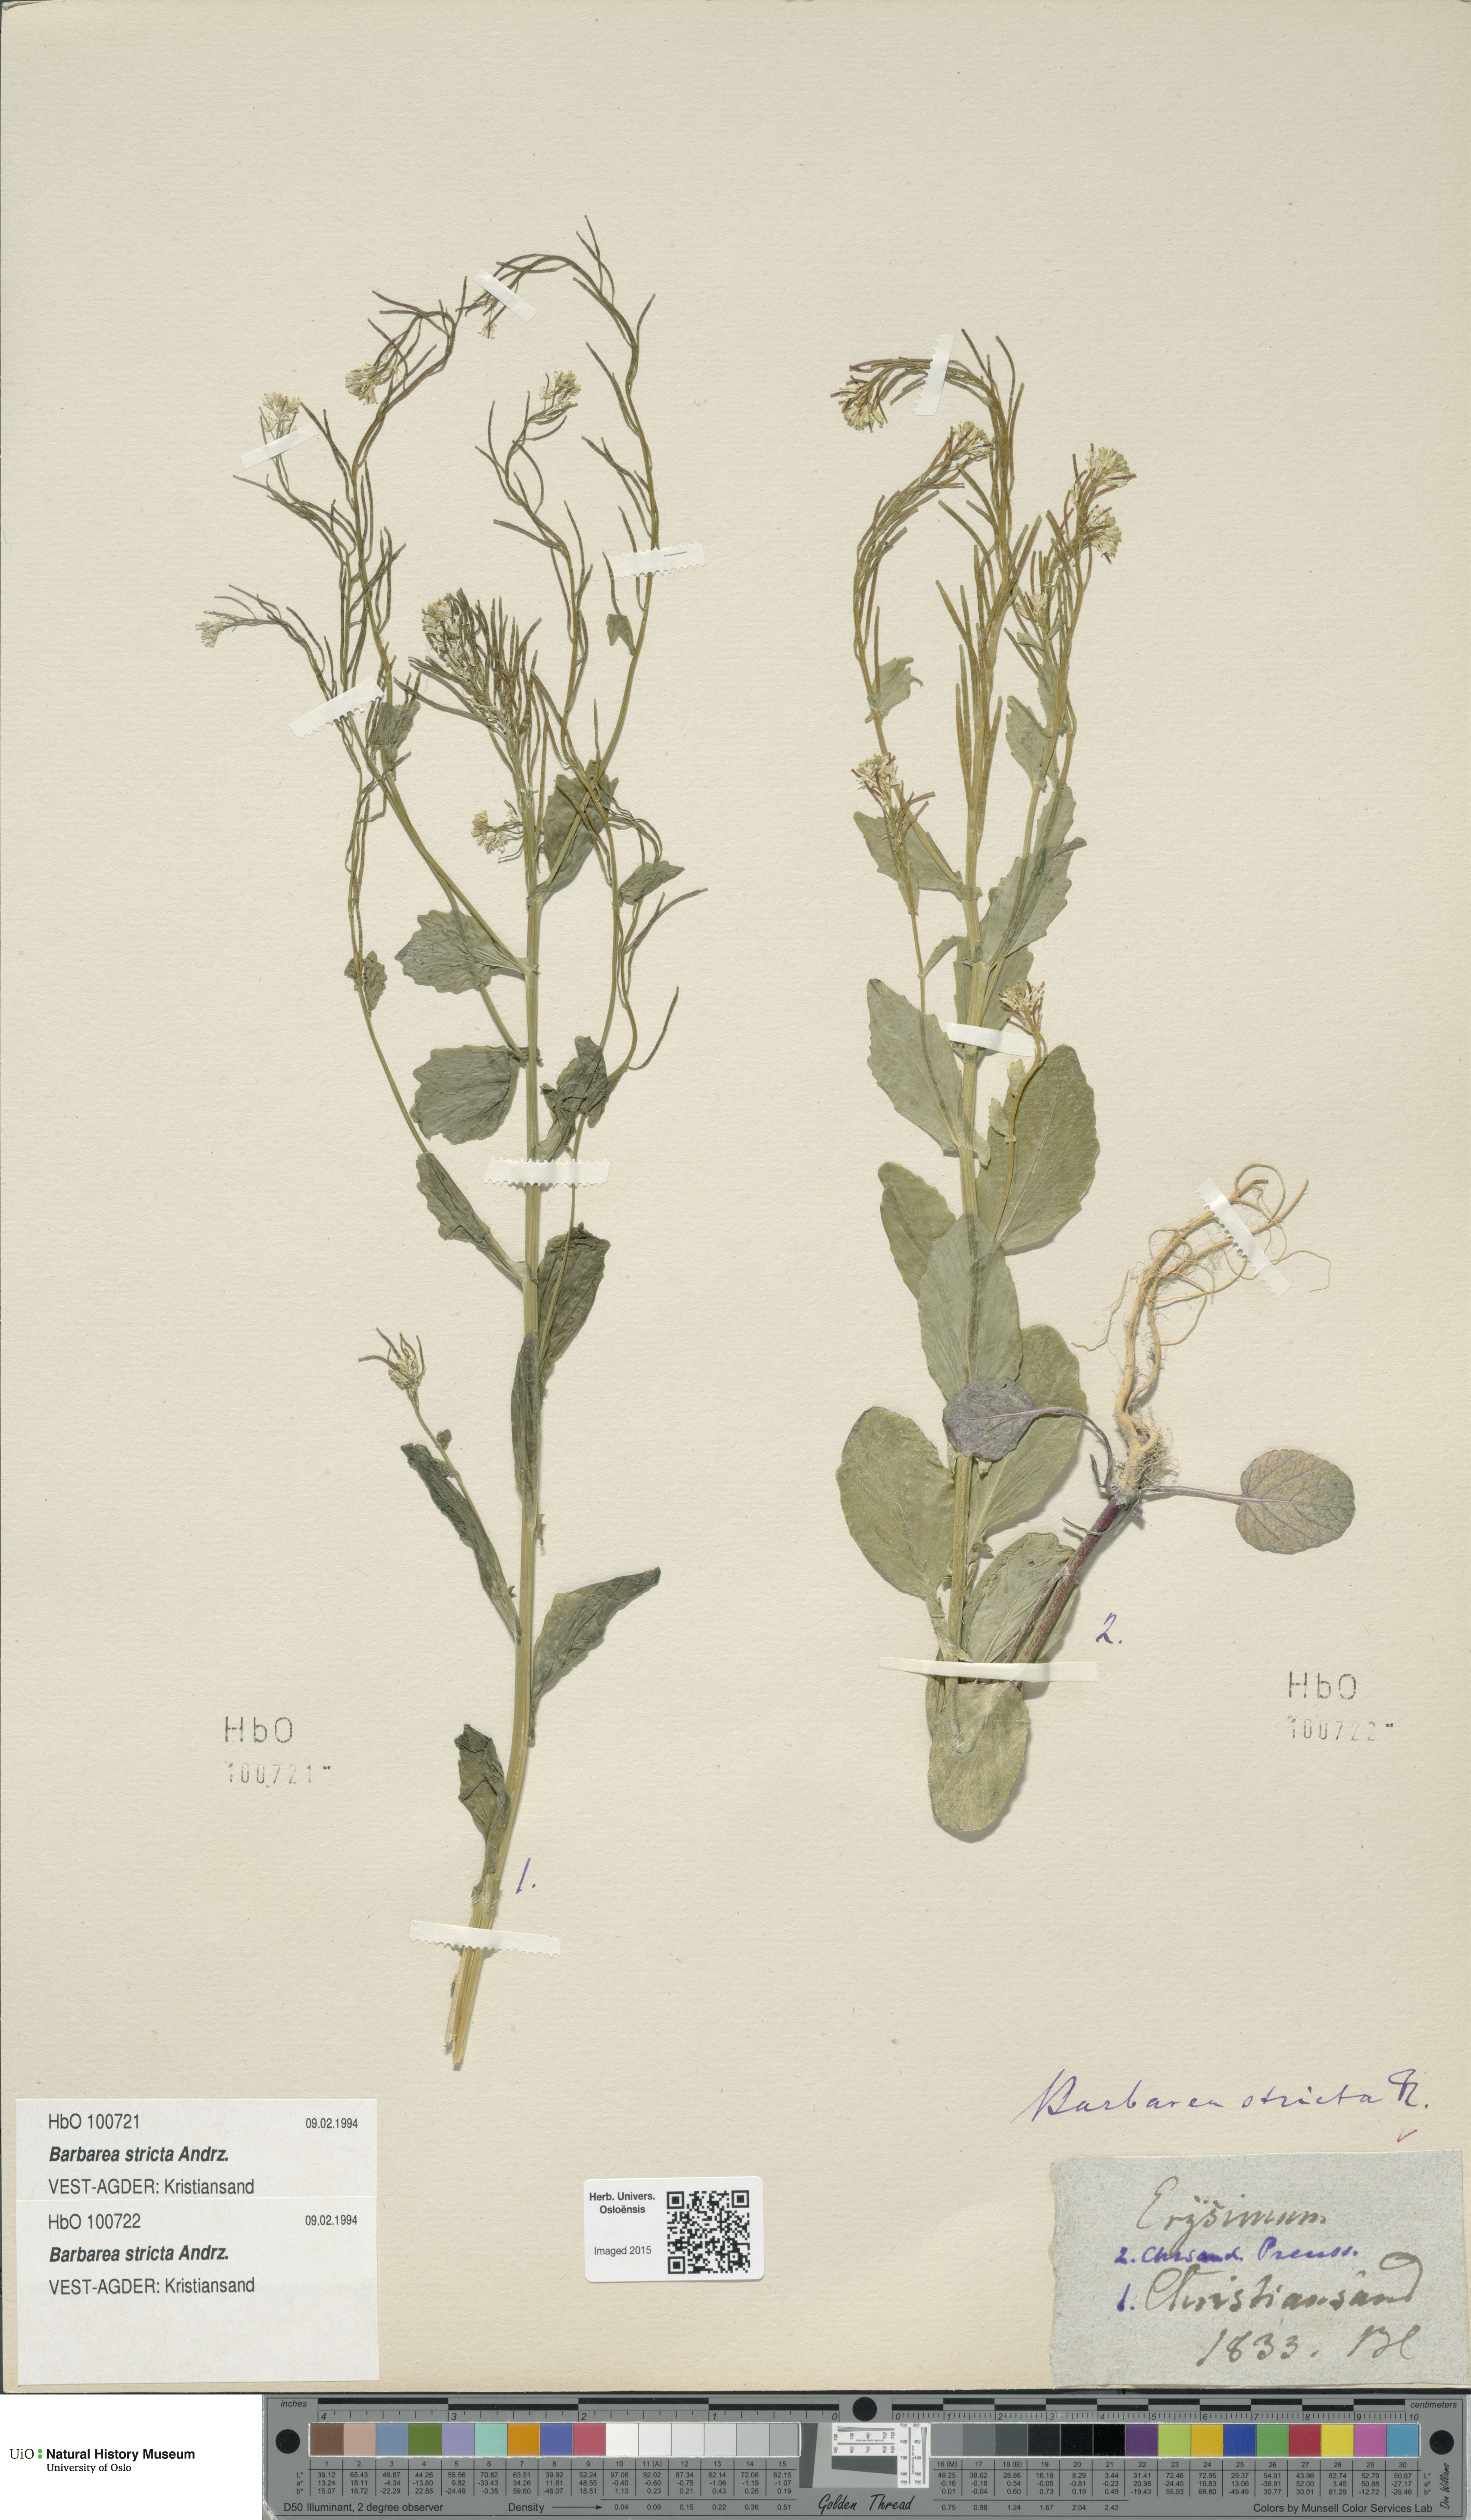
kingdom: Plantae
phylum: Tracheophyta
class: Magnoliopsida
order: Brassicales
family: Brassicaceae
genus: Barbarea
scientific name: Barbarea stricta
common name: Small-flowered winter-cress
